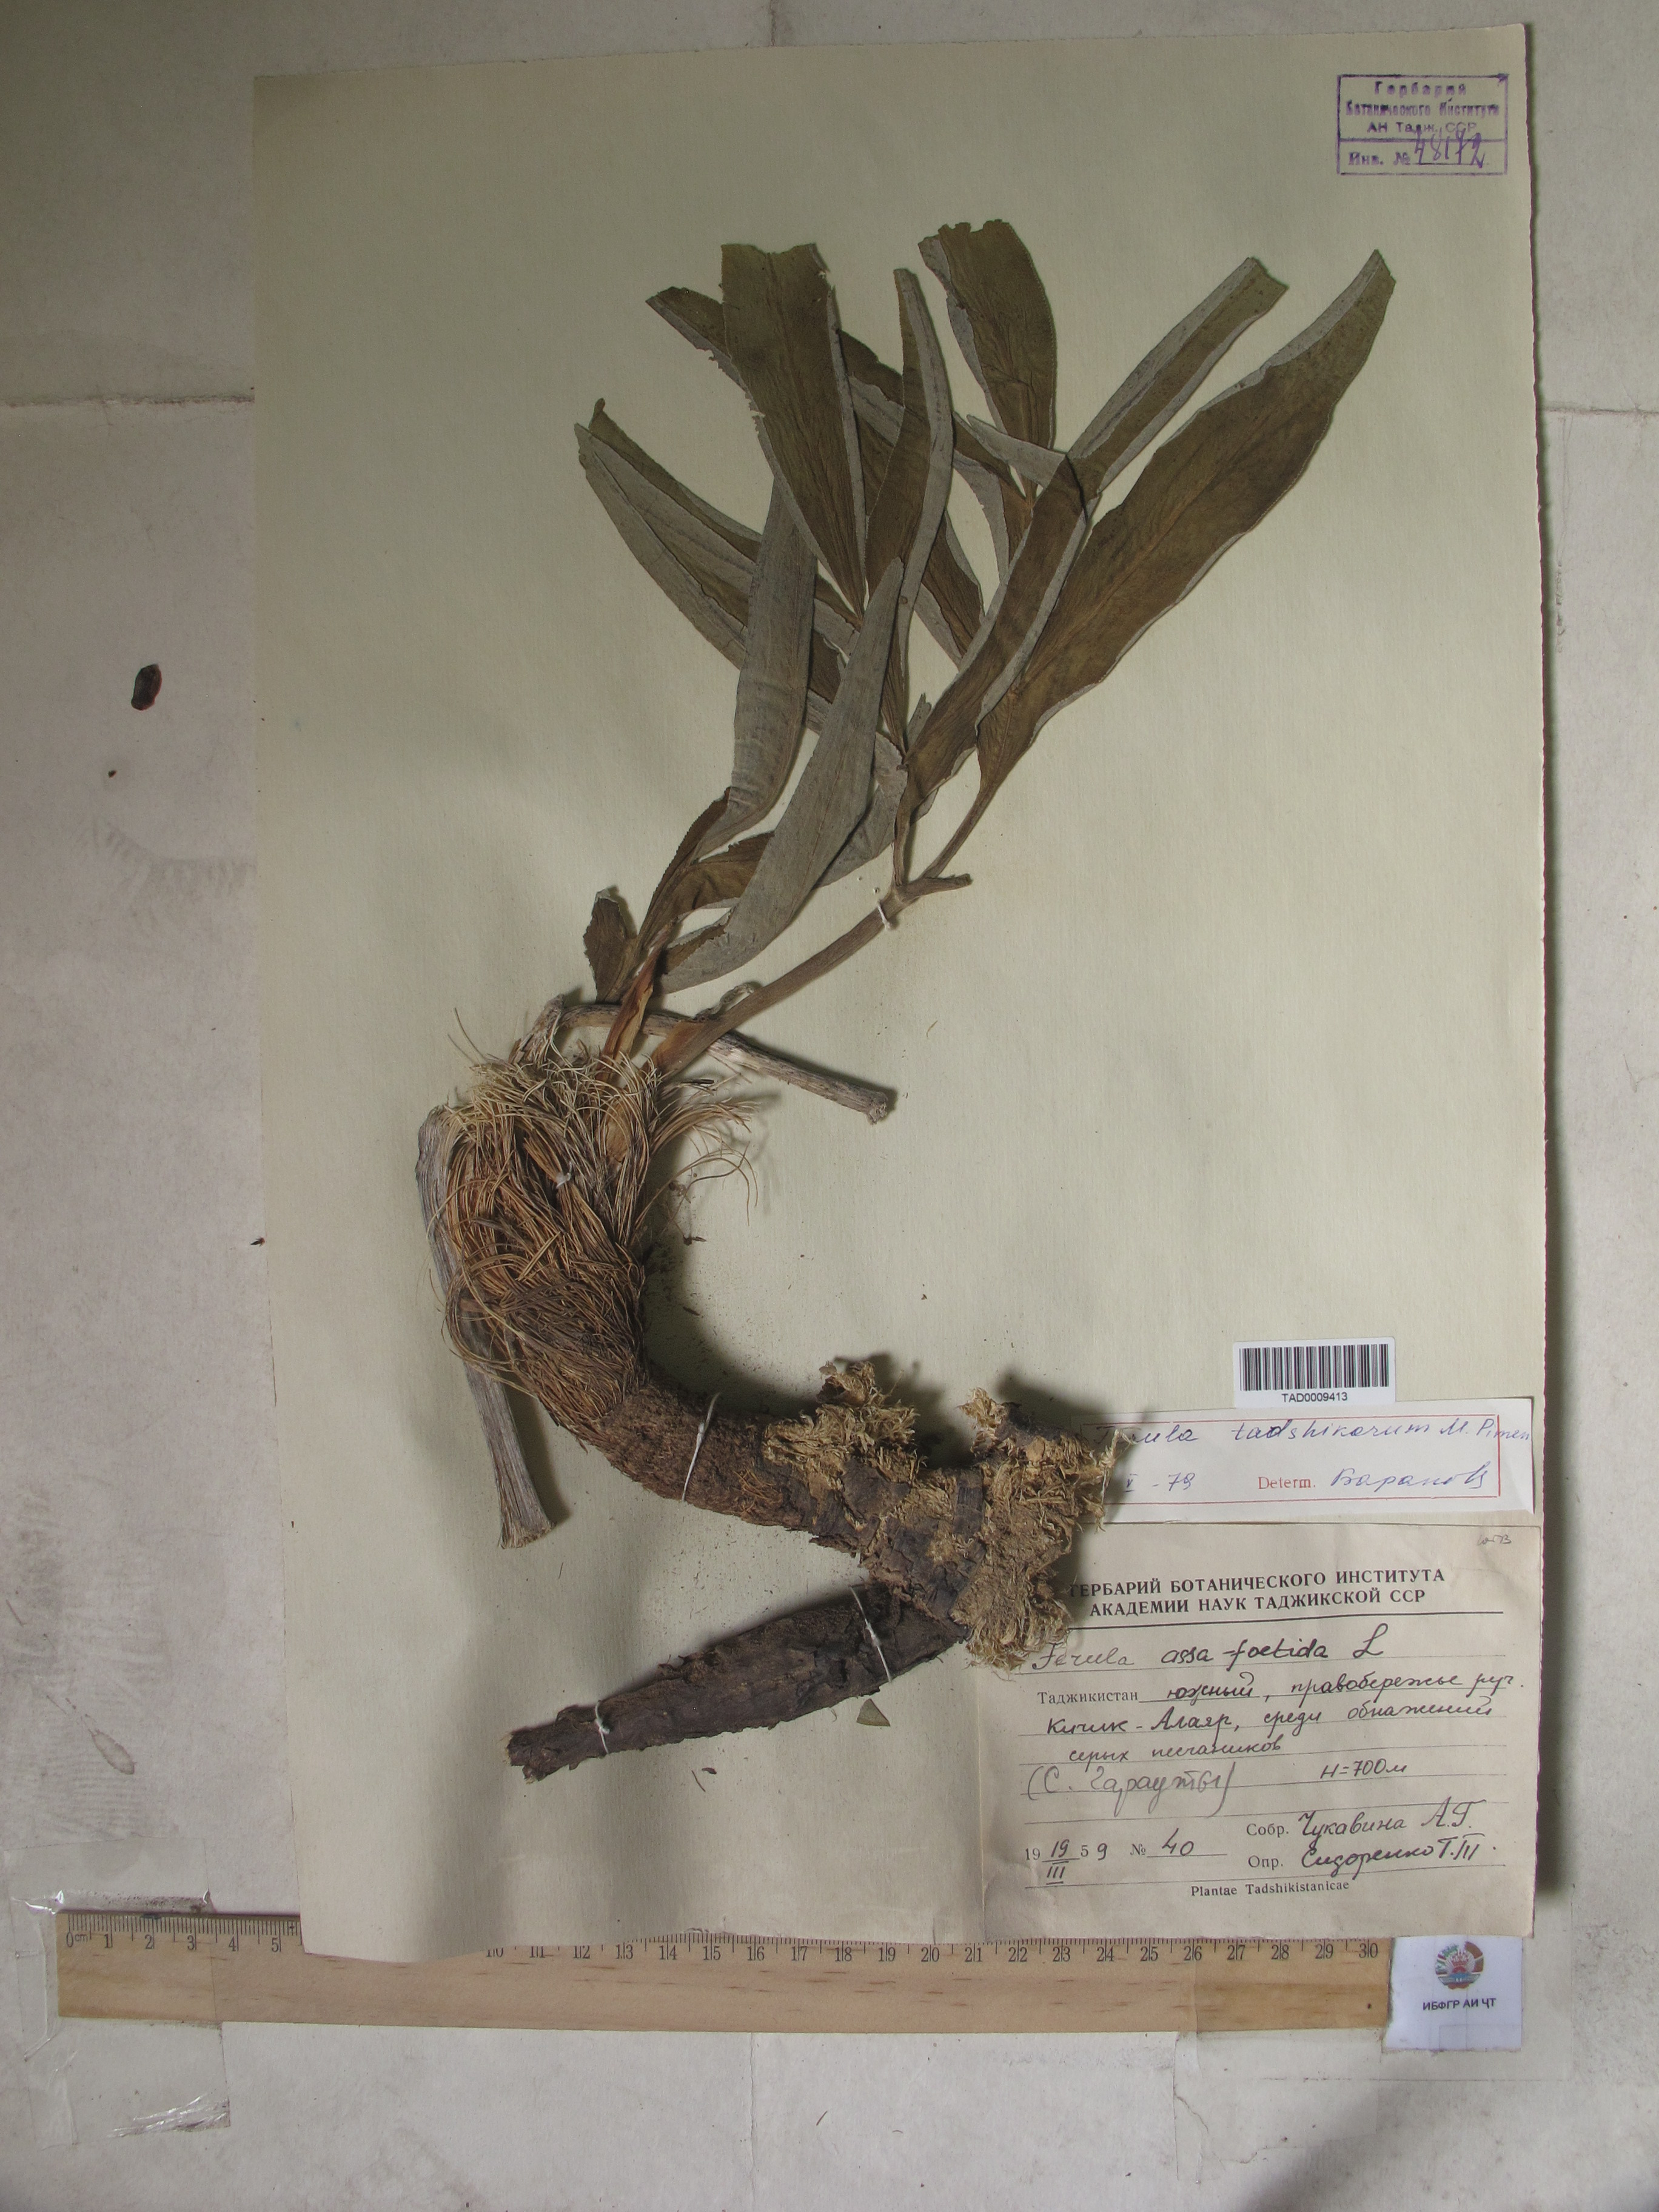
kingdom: Plantae
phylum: Tracheophyta
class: Magnoliopsida
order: Apiales
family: Apiaceae
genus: Ferula
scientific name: Ferula tadshikorum
